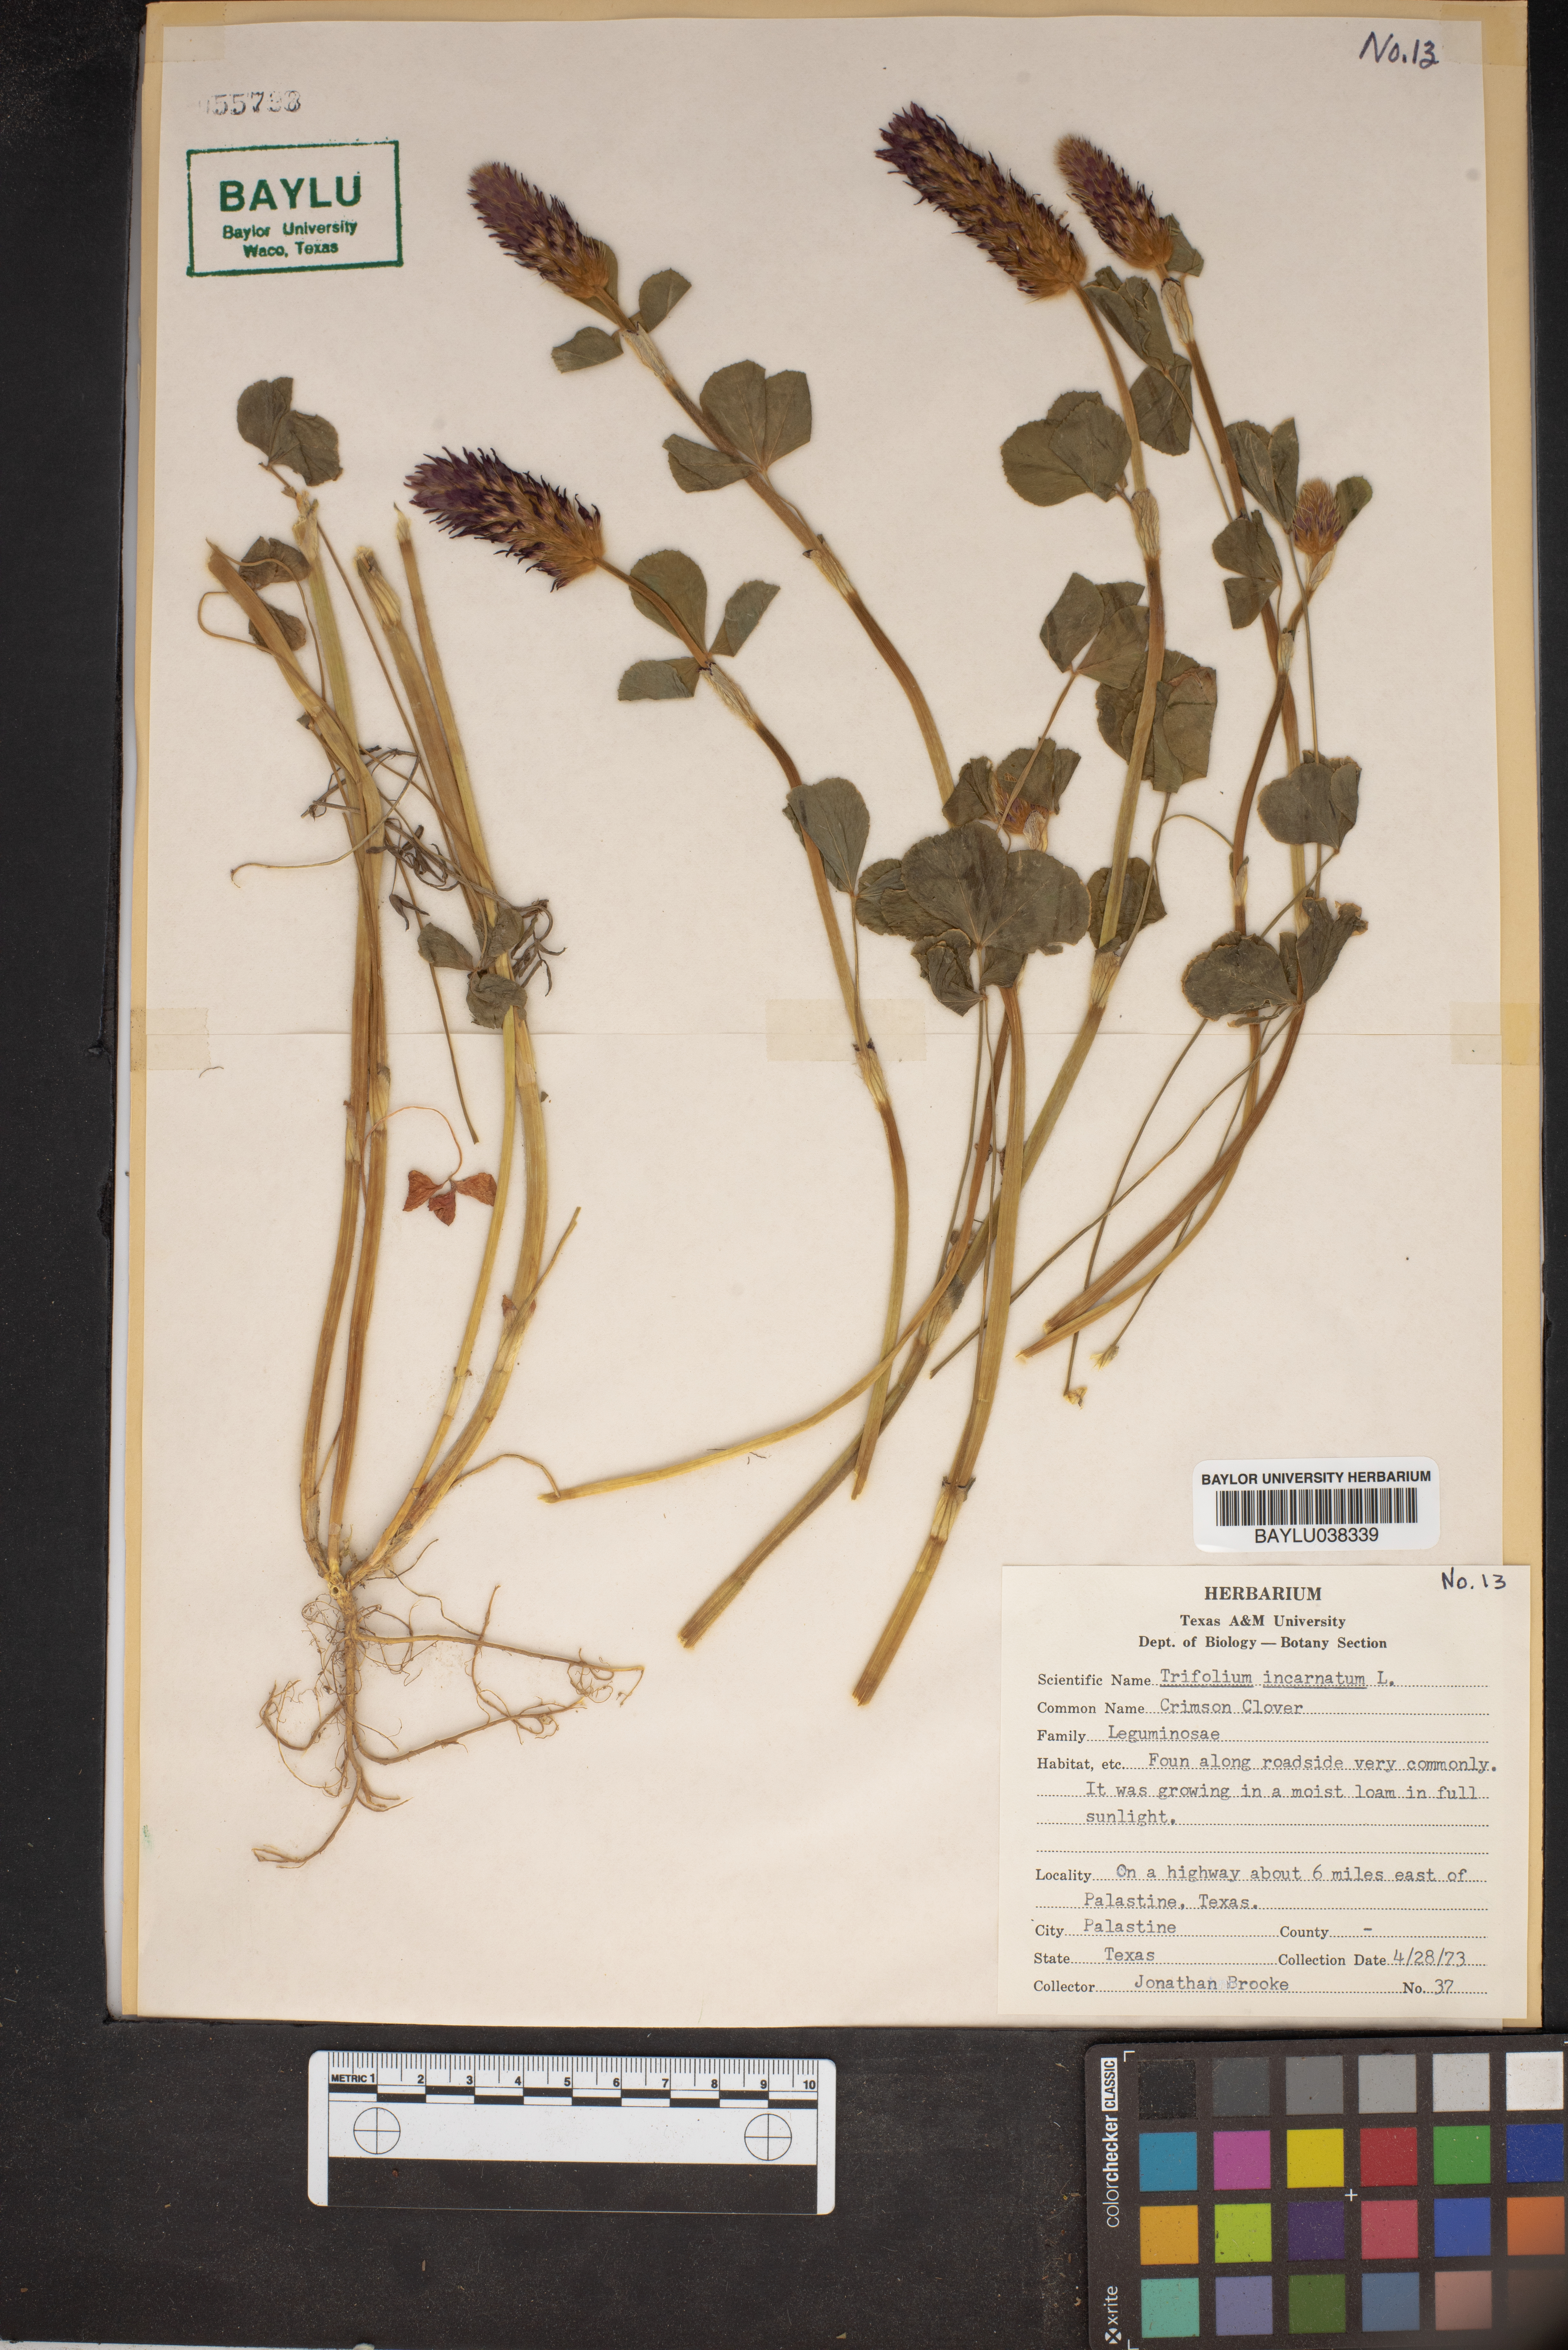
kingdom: Plantae
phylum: Tracheophyta
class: Magnoliopsida
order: Fabales
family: Fabaceae
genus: Trifolium
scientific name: Trifolium incarnatum
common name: Crimson clover
